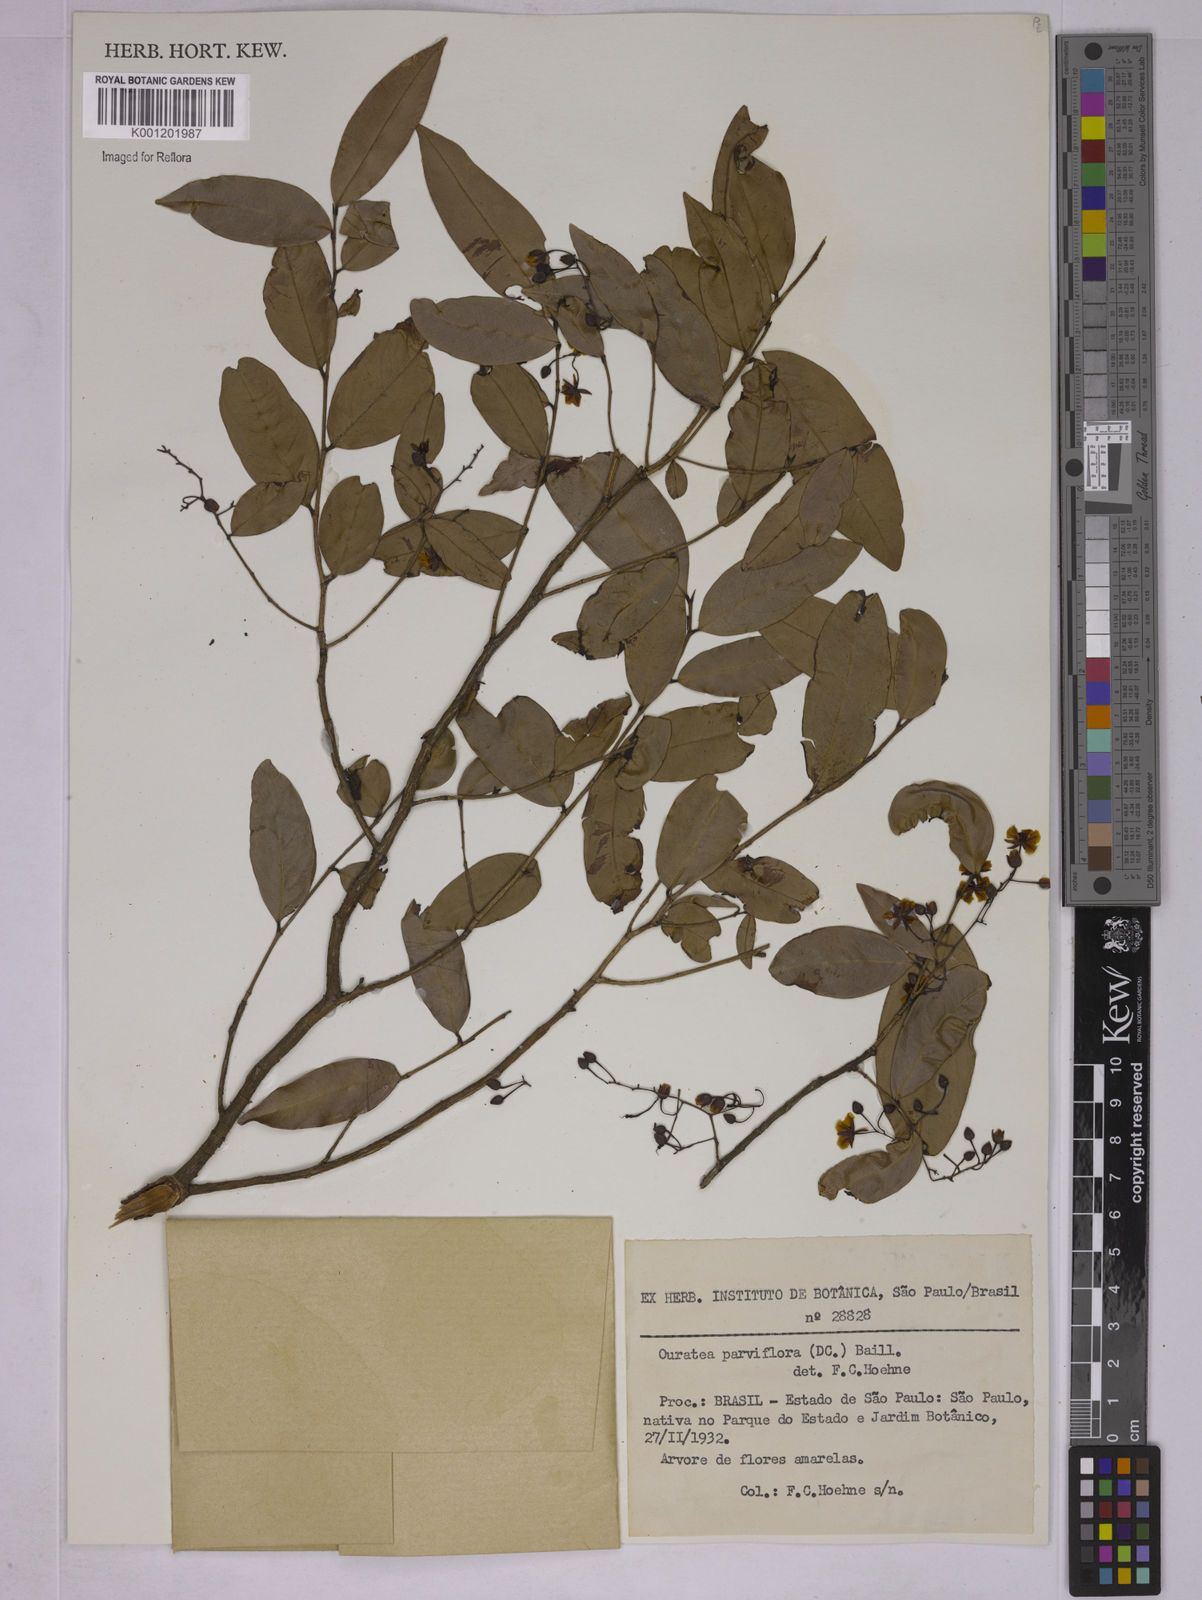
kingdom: Plantae
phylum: Tracheophyta
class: Magnoliopsida
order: Malpighiales
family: Ochnaceae
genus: Ouratea
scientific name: Ouratea parviflora
